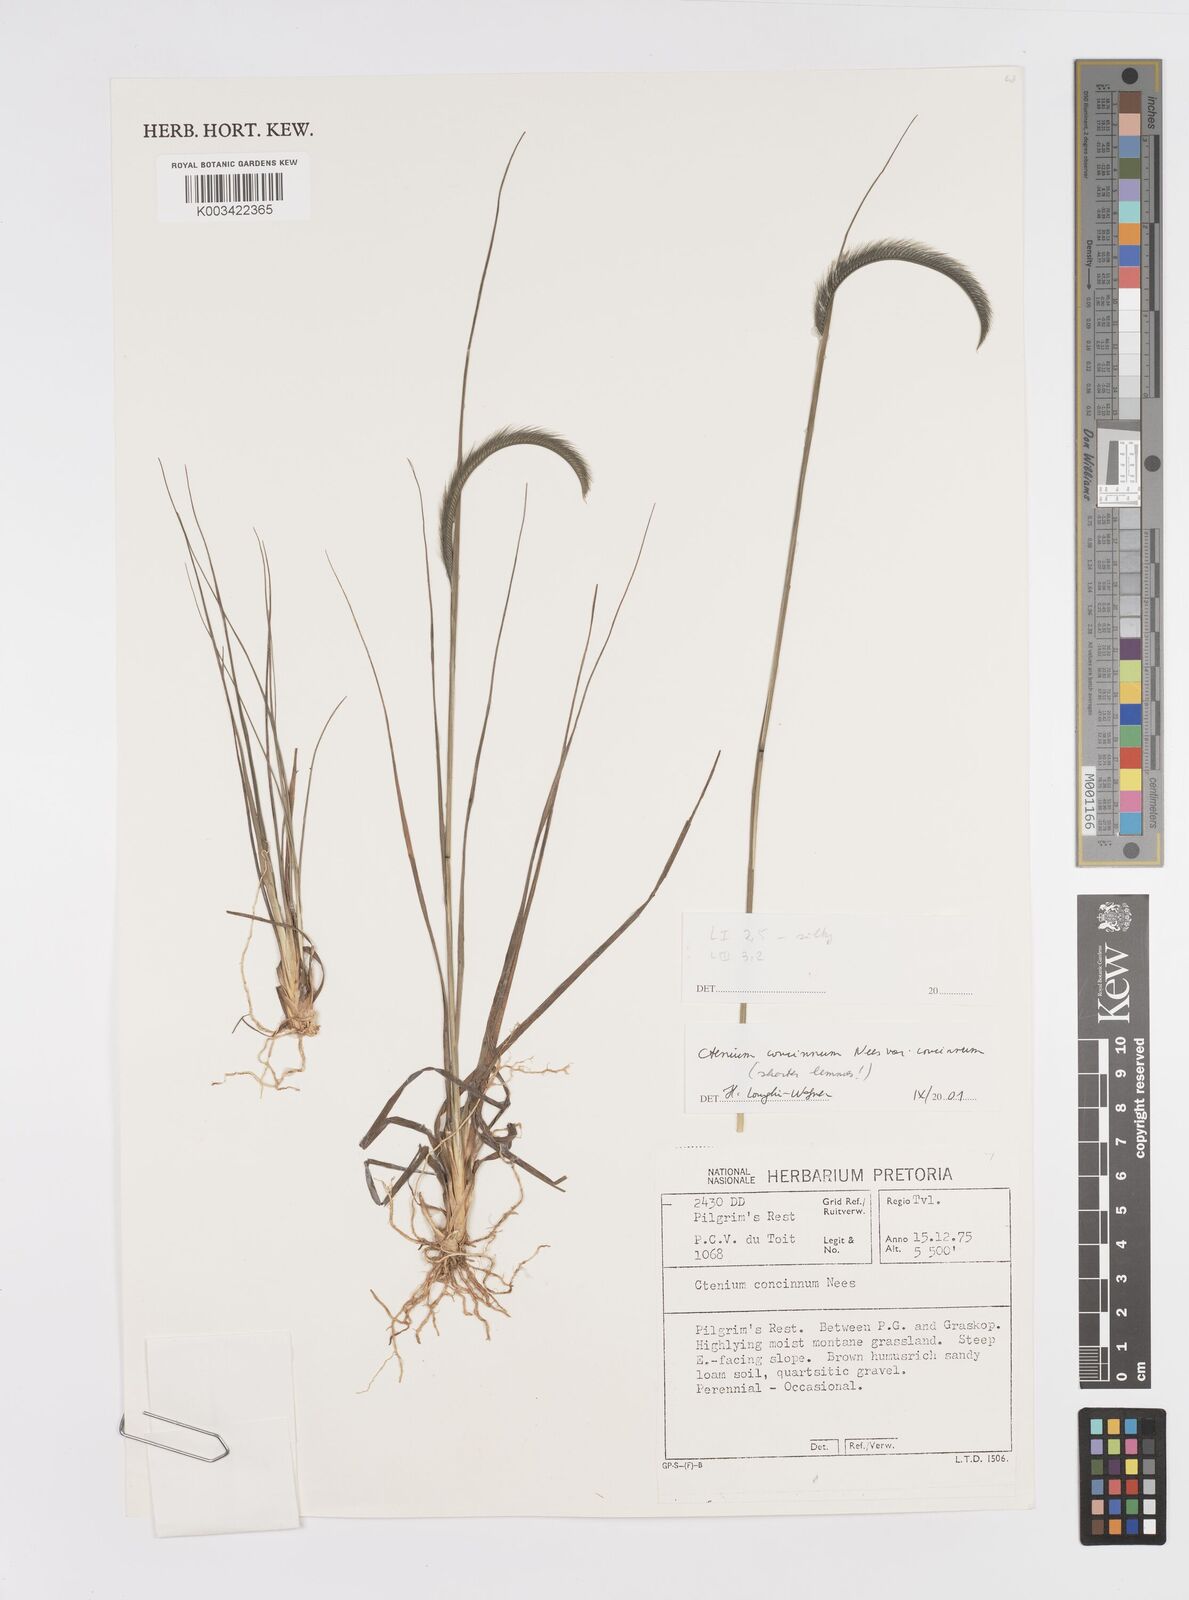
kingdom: Plantae
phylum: Tracheophyta
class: Liliopsida
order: Poales
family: Poaceae
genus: Ctenium
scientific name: Ctenium concinnum
